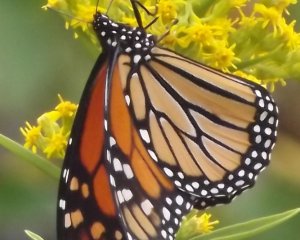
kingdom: Animalia
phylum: Arthropoda
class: Insecta
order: Lepidoptera
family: Nymphalidae
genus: Danaus
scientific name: Danaus plexippus
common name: Monarch
